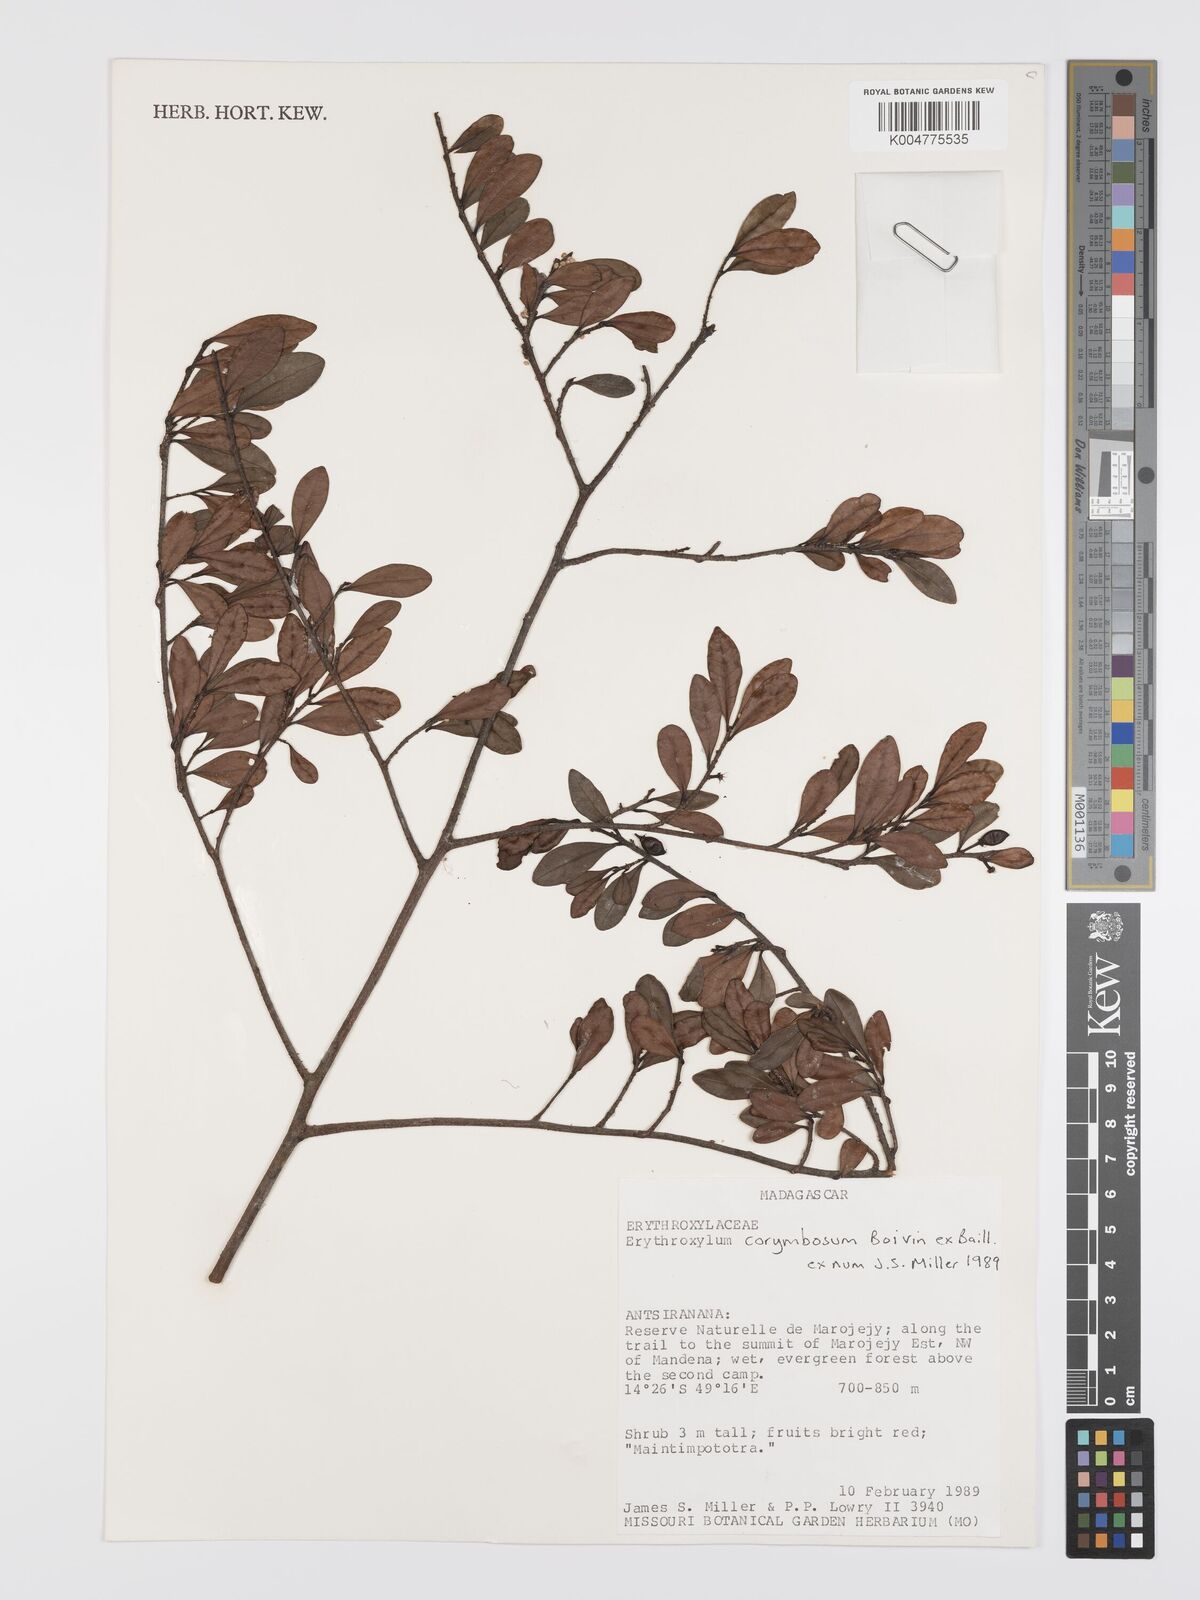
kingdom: Plantae
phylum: Tracheophyta
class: Magnoliopsida
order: Malpighiales
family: Erythroxylaceae
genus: Erythroxylum
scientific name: Erythroxylum corymbosum
